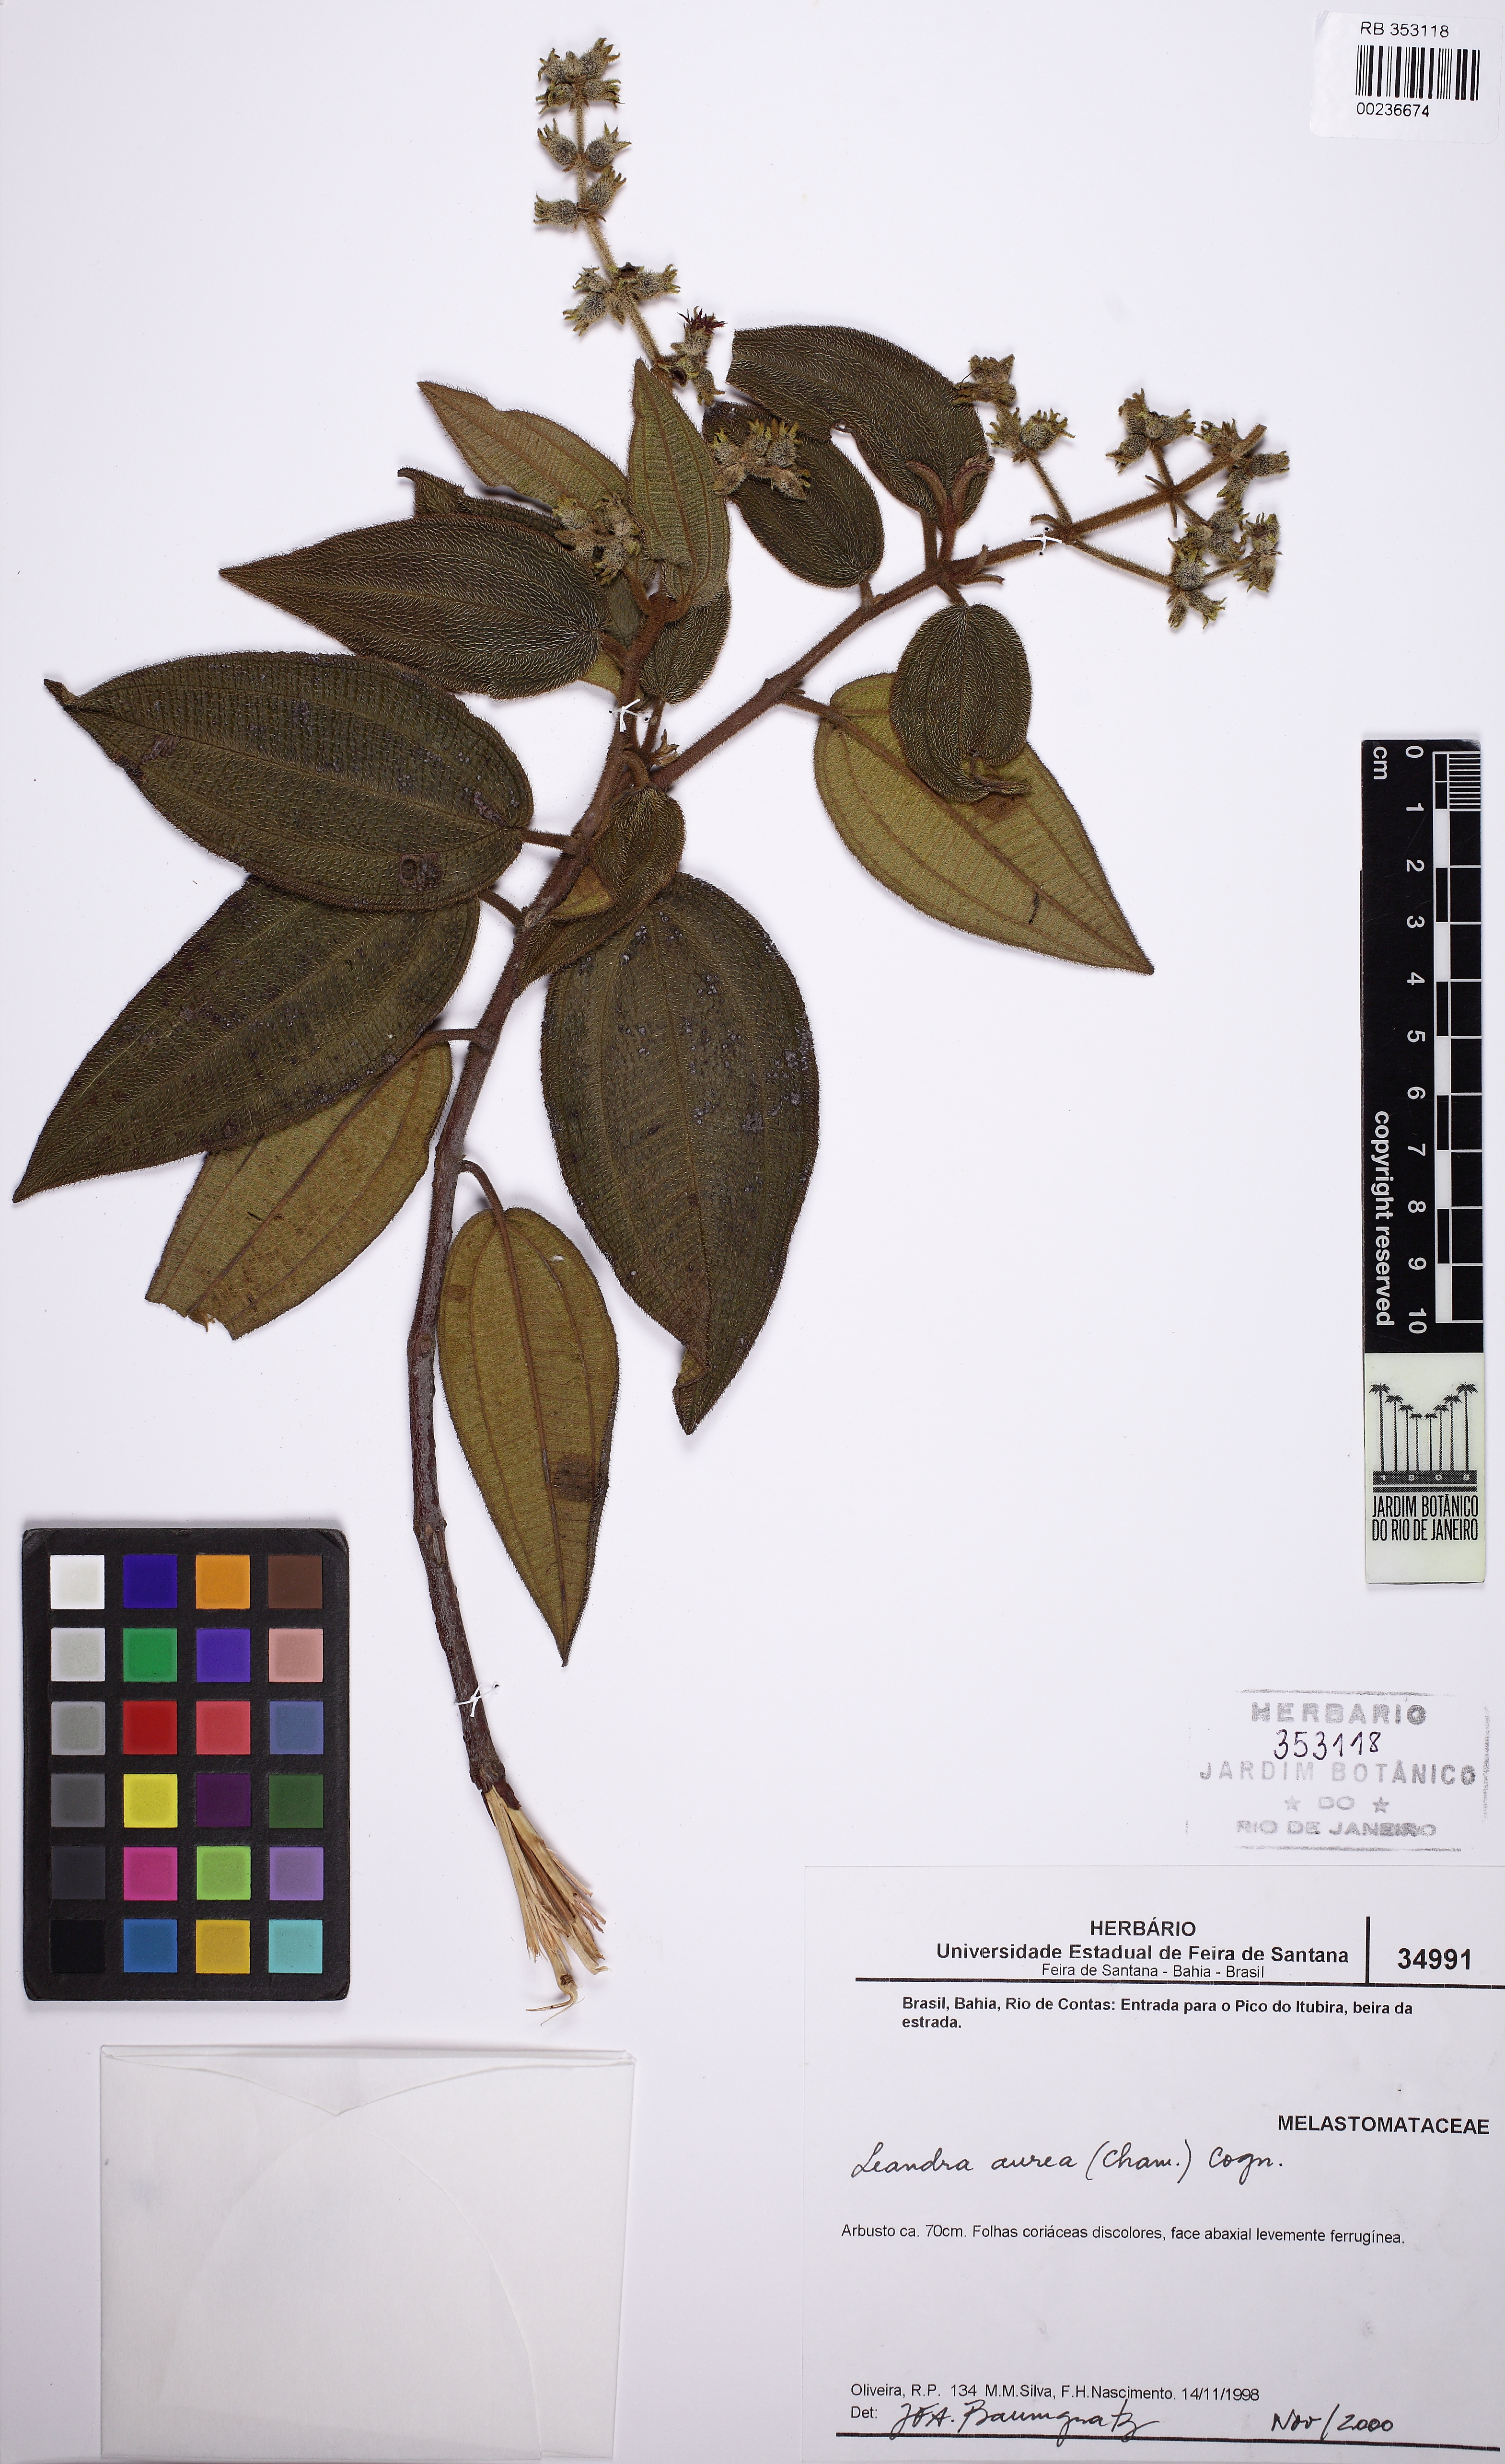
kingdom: Plantae
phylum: Tracheophyta
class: Magnoliopsida
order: Myrtales
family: Melastomataceae
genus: Miconia
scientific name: Miconia auricoma
